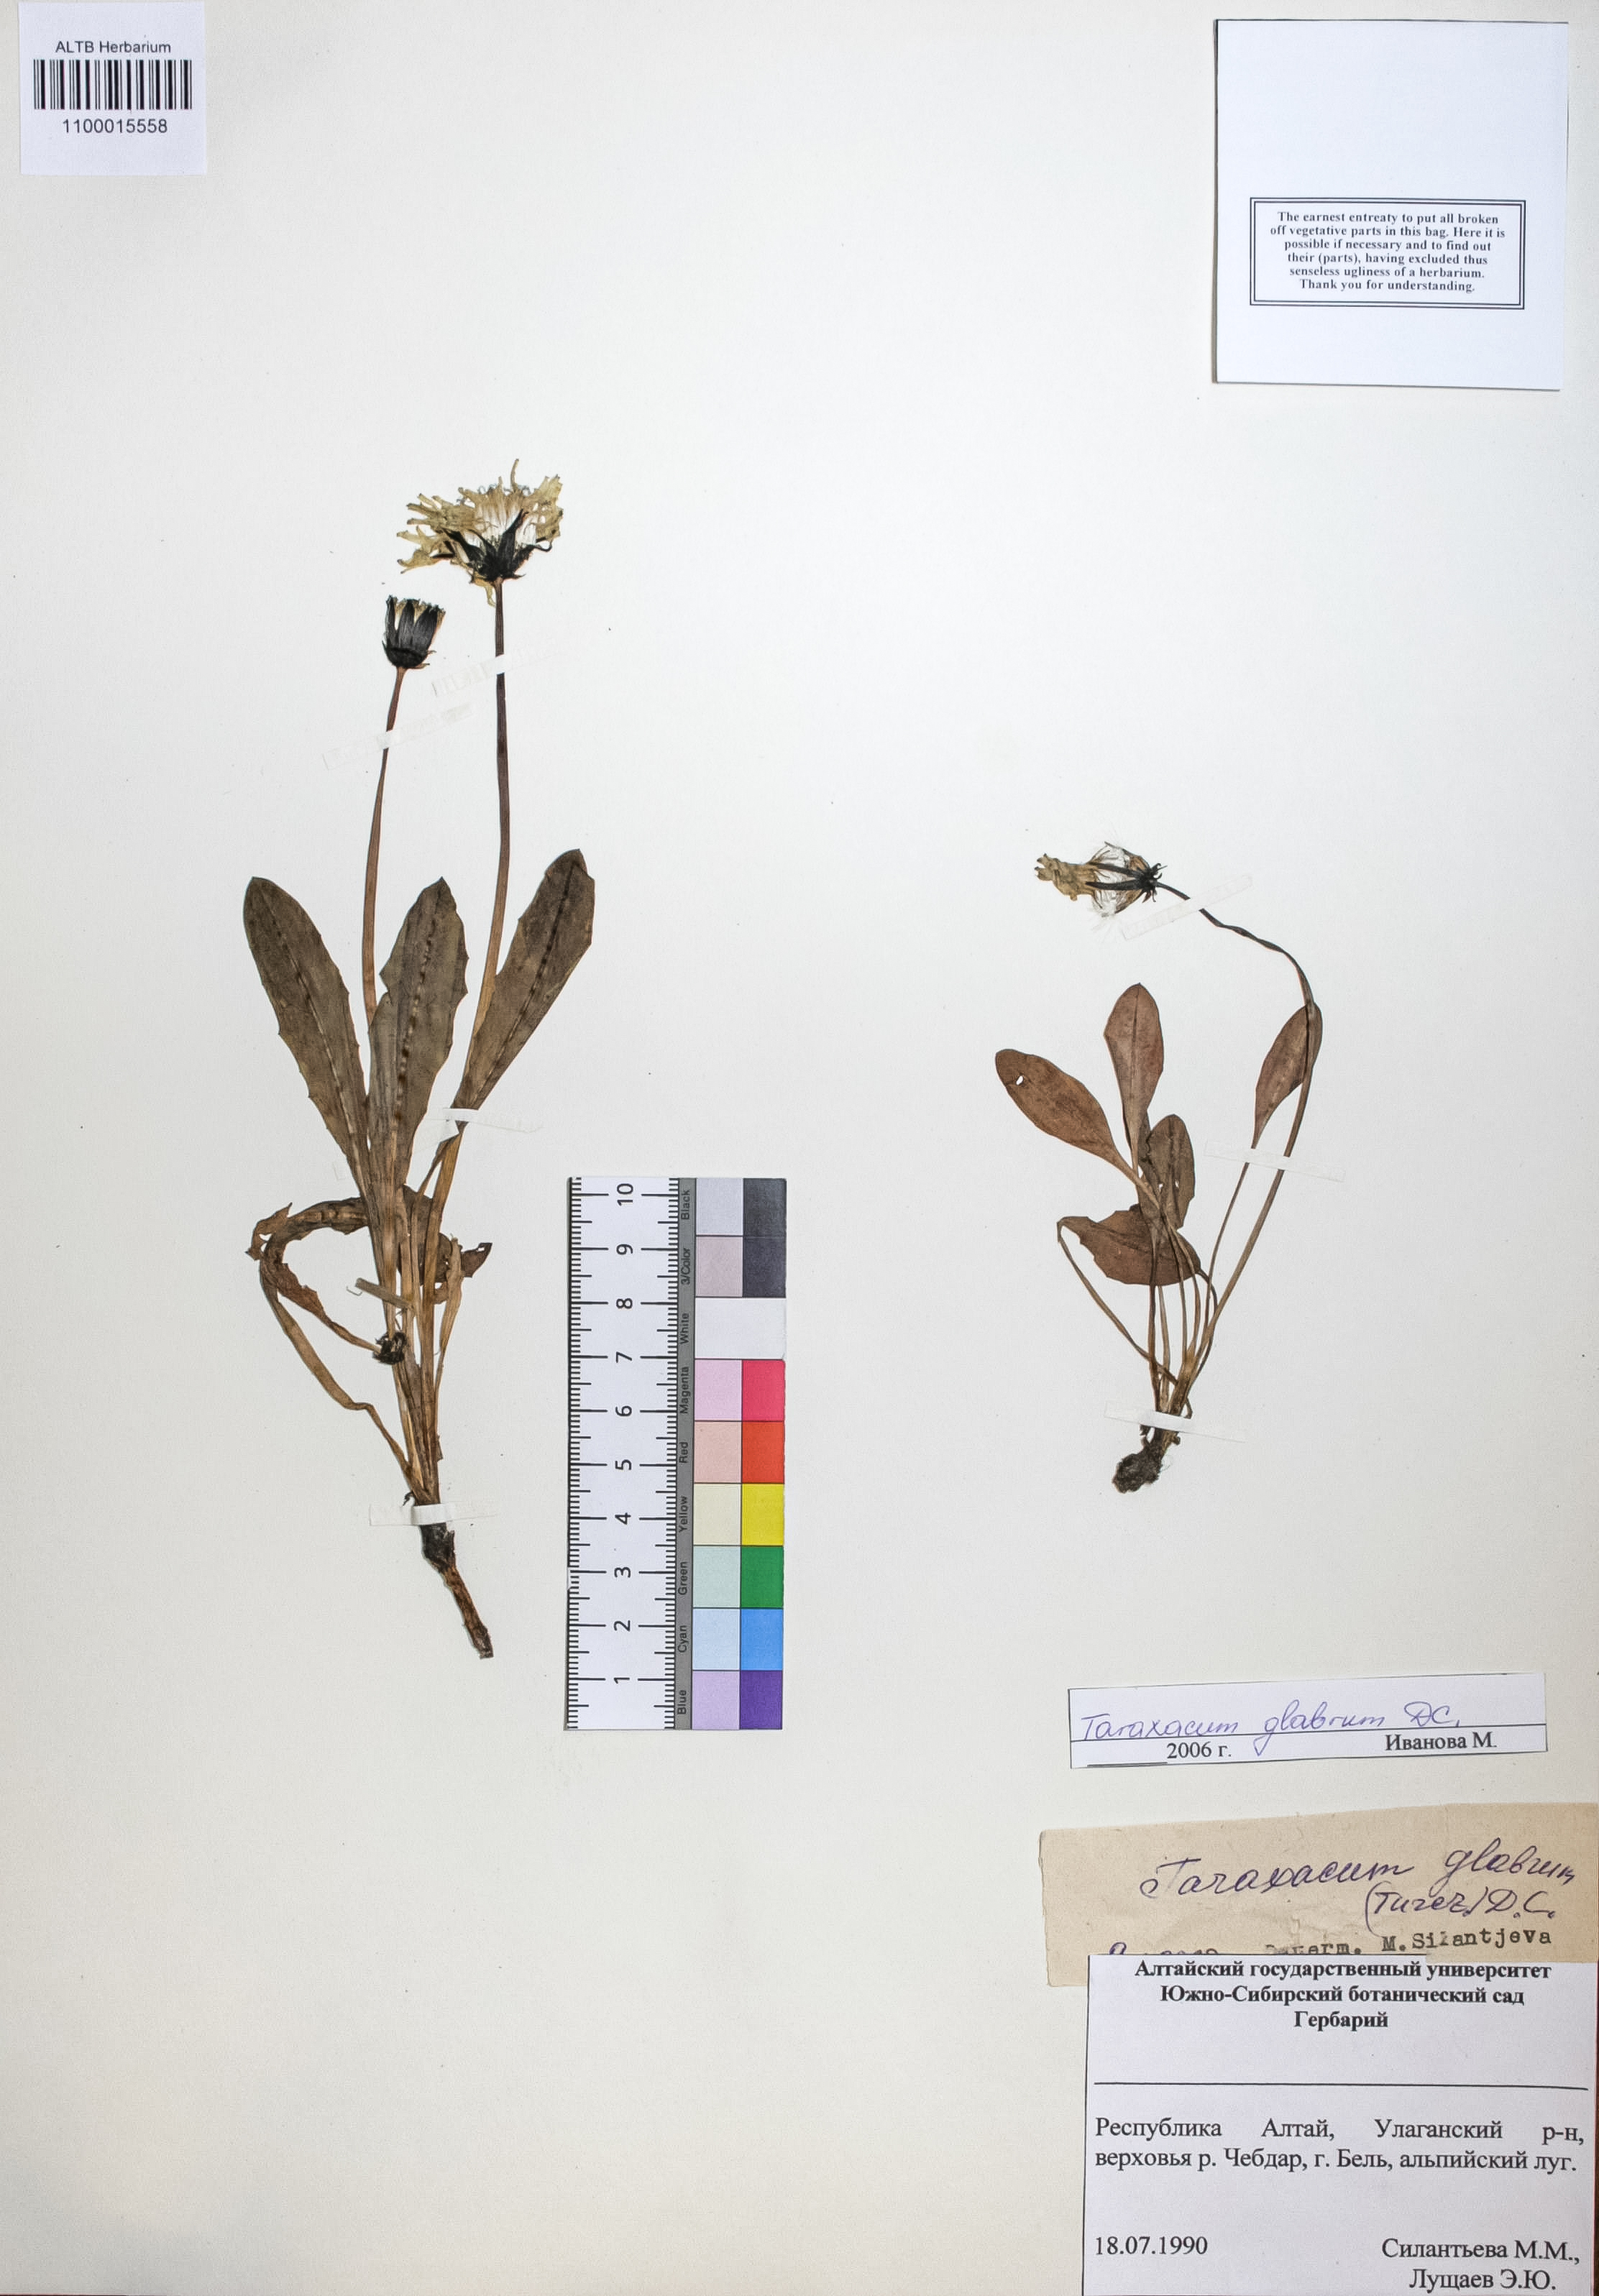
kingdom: Plantae
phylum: Tracheophyta
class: Magnoliopsida
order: Asterales
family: Asteraceae
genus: Taraxacum
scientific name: Taraxacum glabrum
